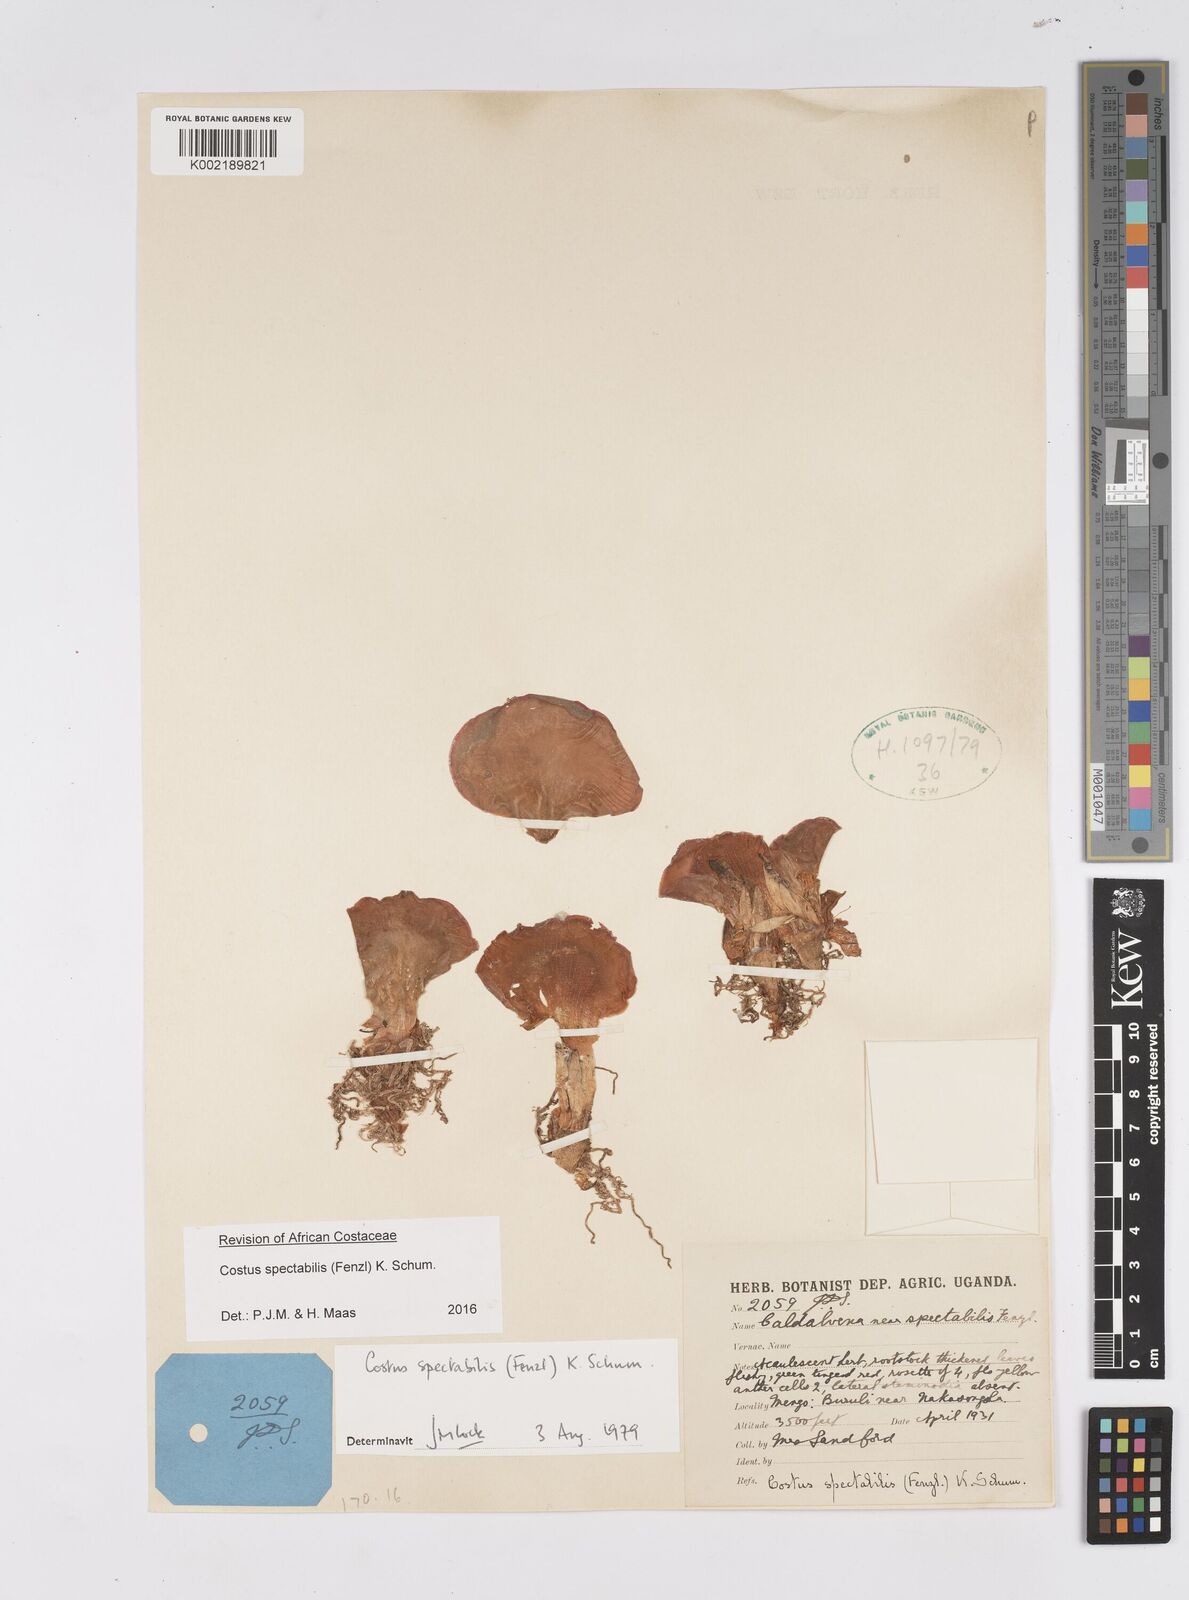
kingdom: Plantae
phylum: Tracheophyta
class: Liliopsida
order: Zingiberales
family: Costaceae
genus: Costus
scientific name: Costus spectabilis
